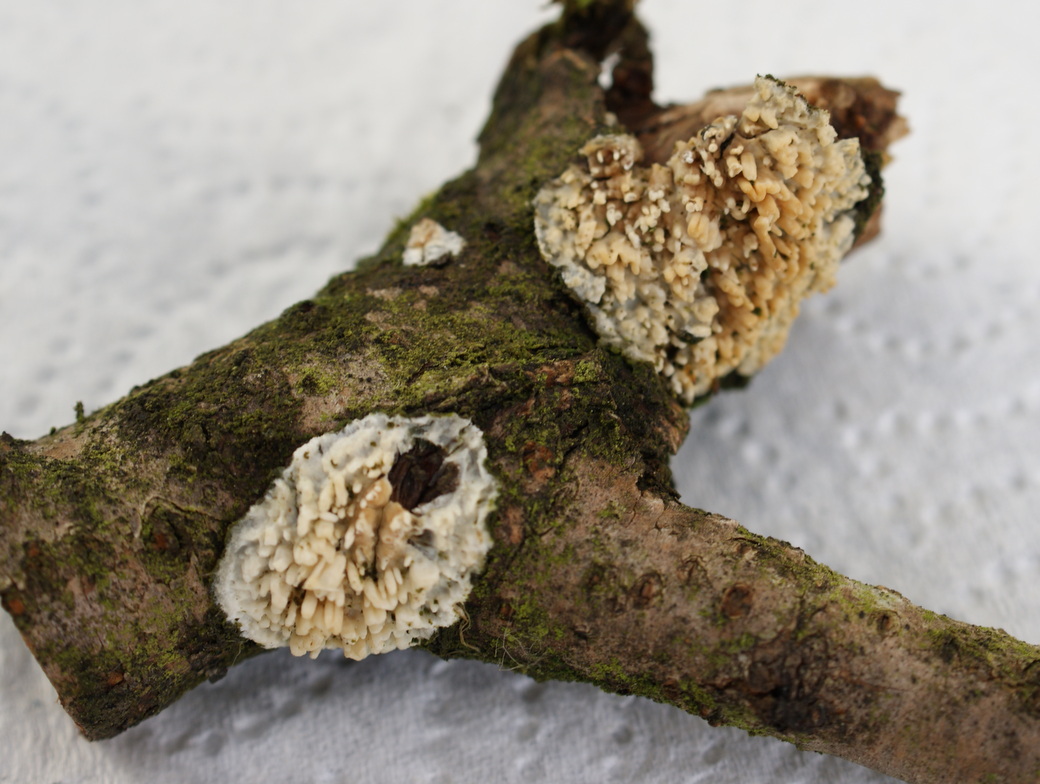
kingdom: Fungi
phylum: Basidiomycota
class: Agaricomycetes
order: Hymenochaetales
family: Schizoporaceae
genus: Xylodon
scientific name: Xylodon radula
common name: grovtandet kalkskind
